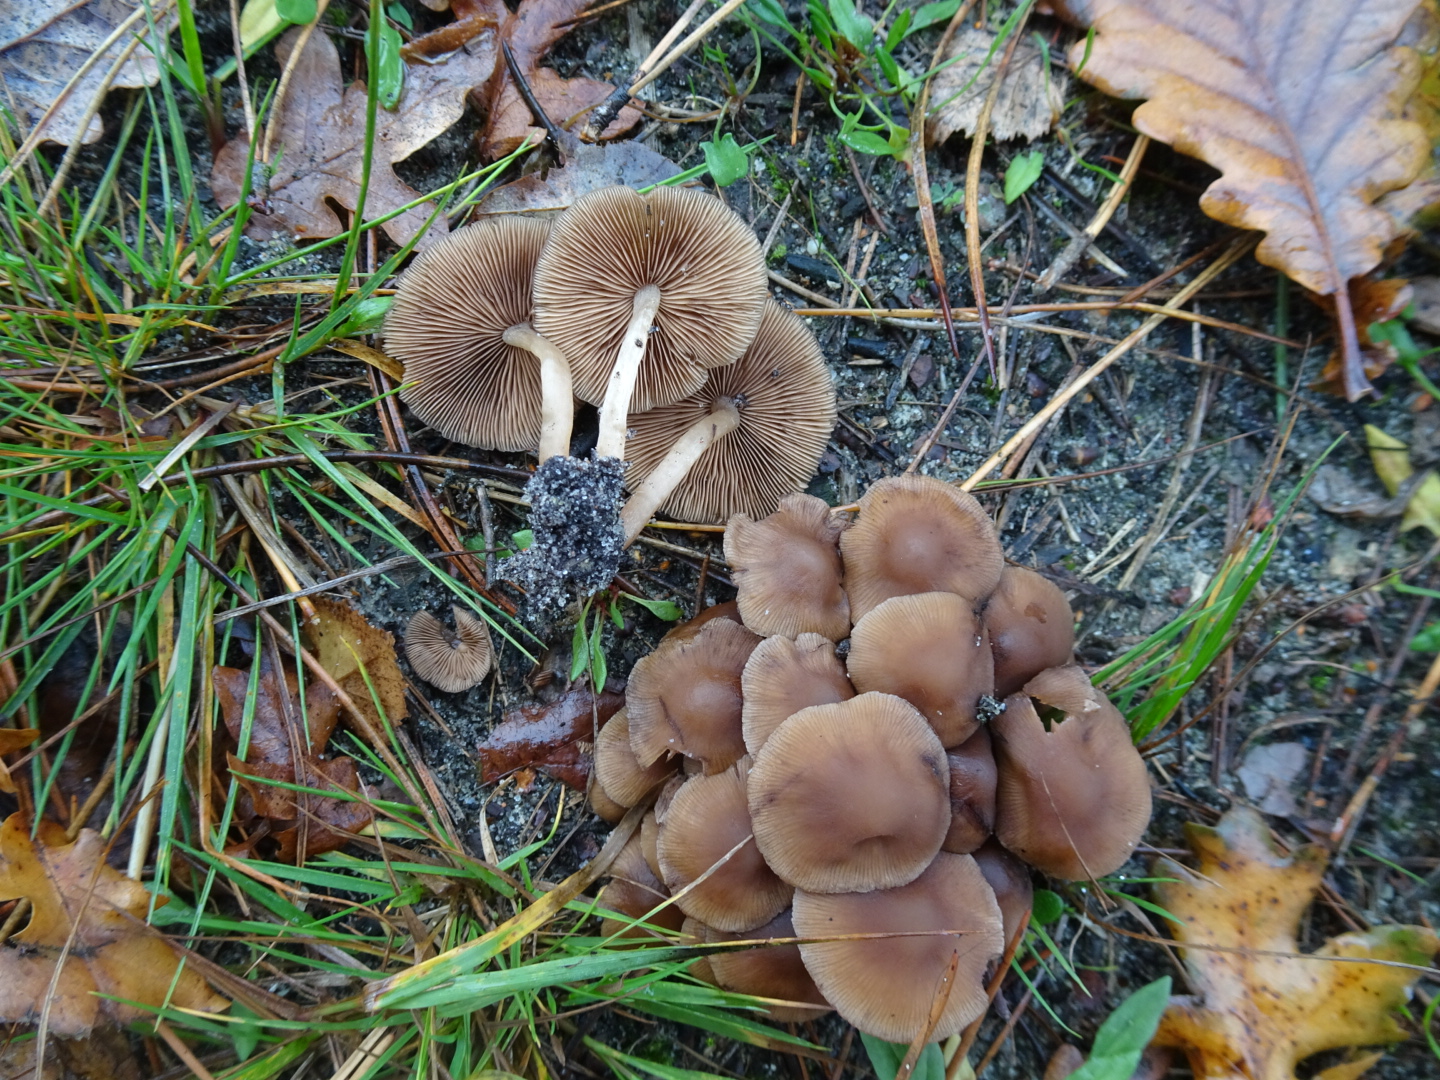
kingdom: Fungi
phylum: Basidiomycota
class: Agaricomycetes
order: Agaricales
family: Psathyrellaceae
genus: Psathyrella
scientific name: Psathyrella piluliformis
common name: lysstokket mørkhat
